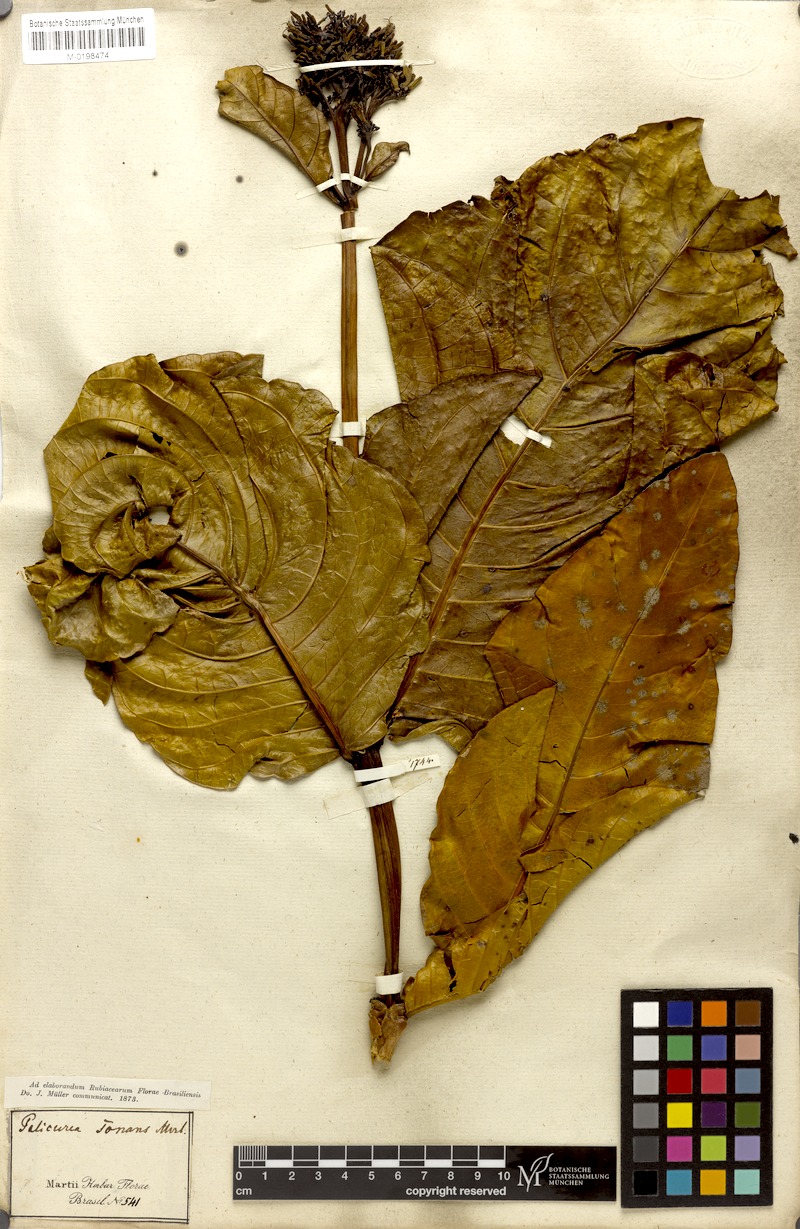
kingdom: Plantae
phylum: Tracheophyta
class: Magnoliopsida
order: Gentianales
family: Rubiaceae
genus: Palicourea
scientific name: Palicourea rigida
